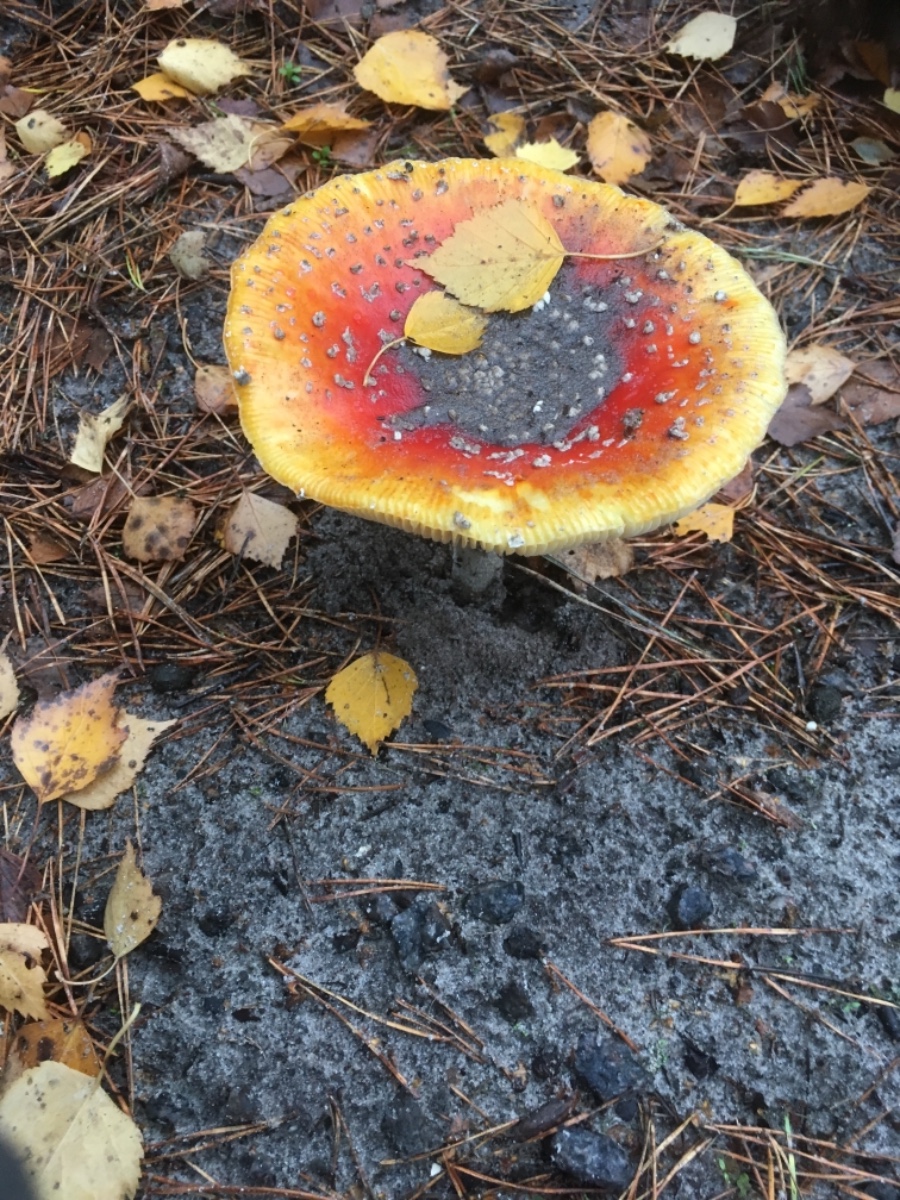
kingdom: Fungi
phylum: Basidiomycota
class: Agaricomycetes
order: Agaricales
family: Amanitaceae
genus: Amanita
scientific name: Amanita muscaria
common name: rød fluesvamp
